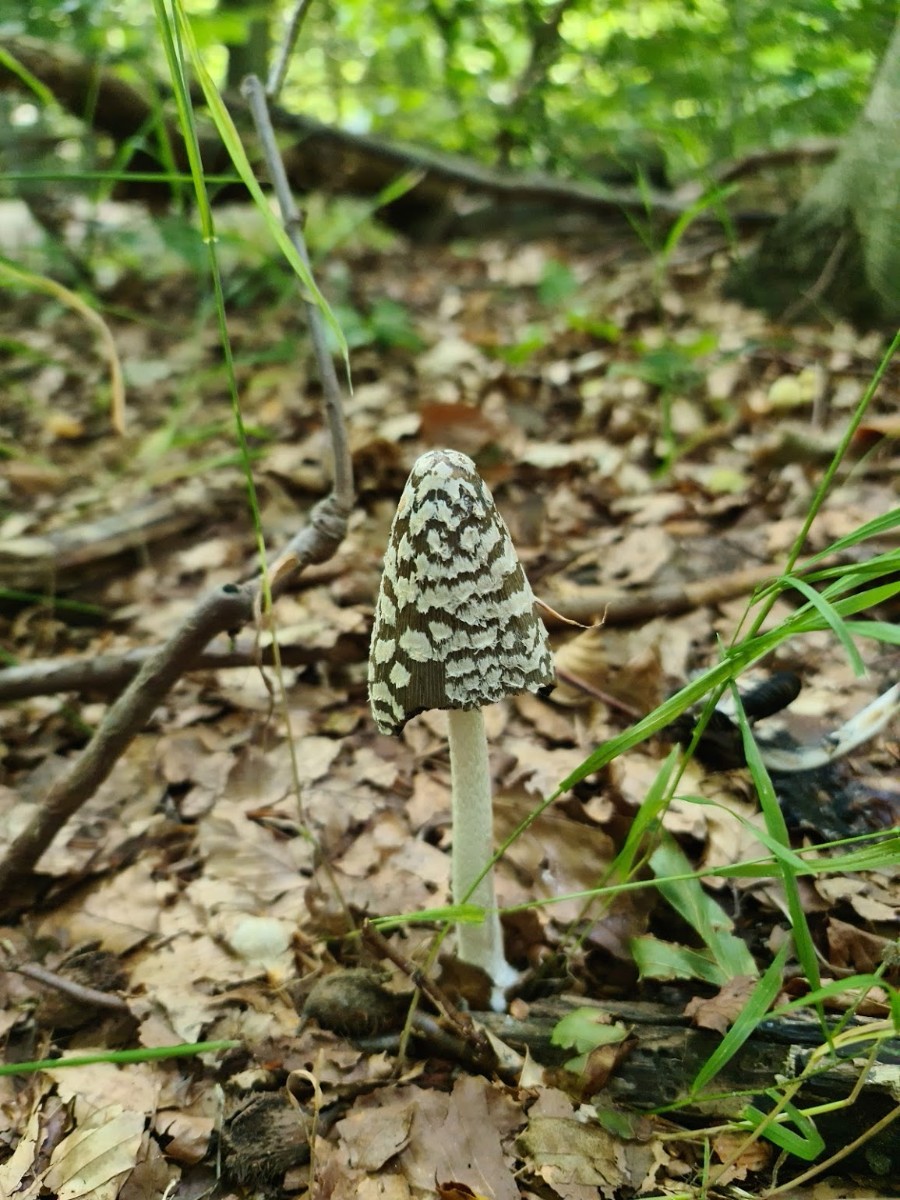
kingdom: Fungi
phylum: Basidiomycota
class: Agaricomycetes
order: Agaricales
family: Psathyrellaceae
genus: Coprinopsis
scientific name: Coprinopsis picacea
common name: skade-blækhat
